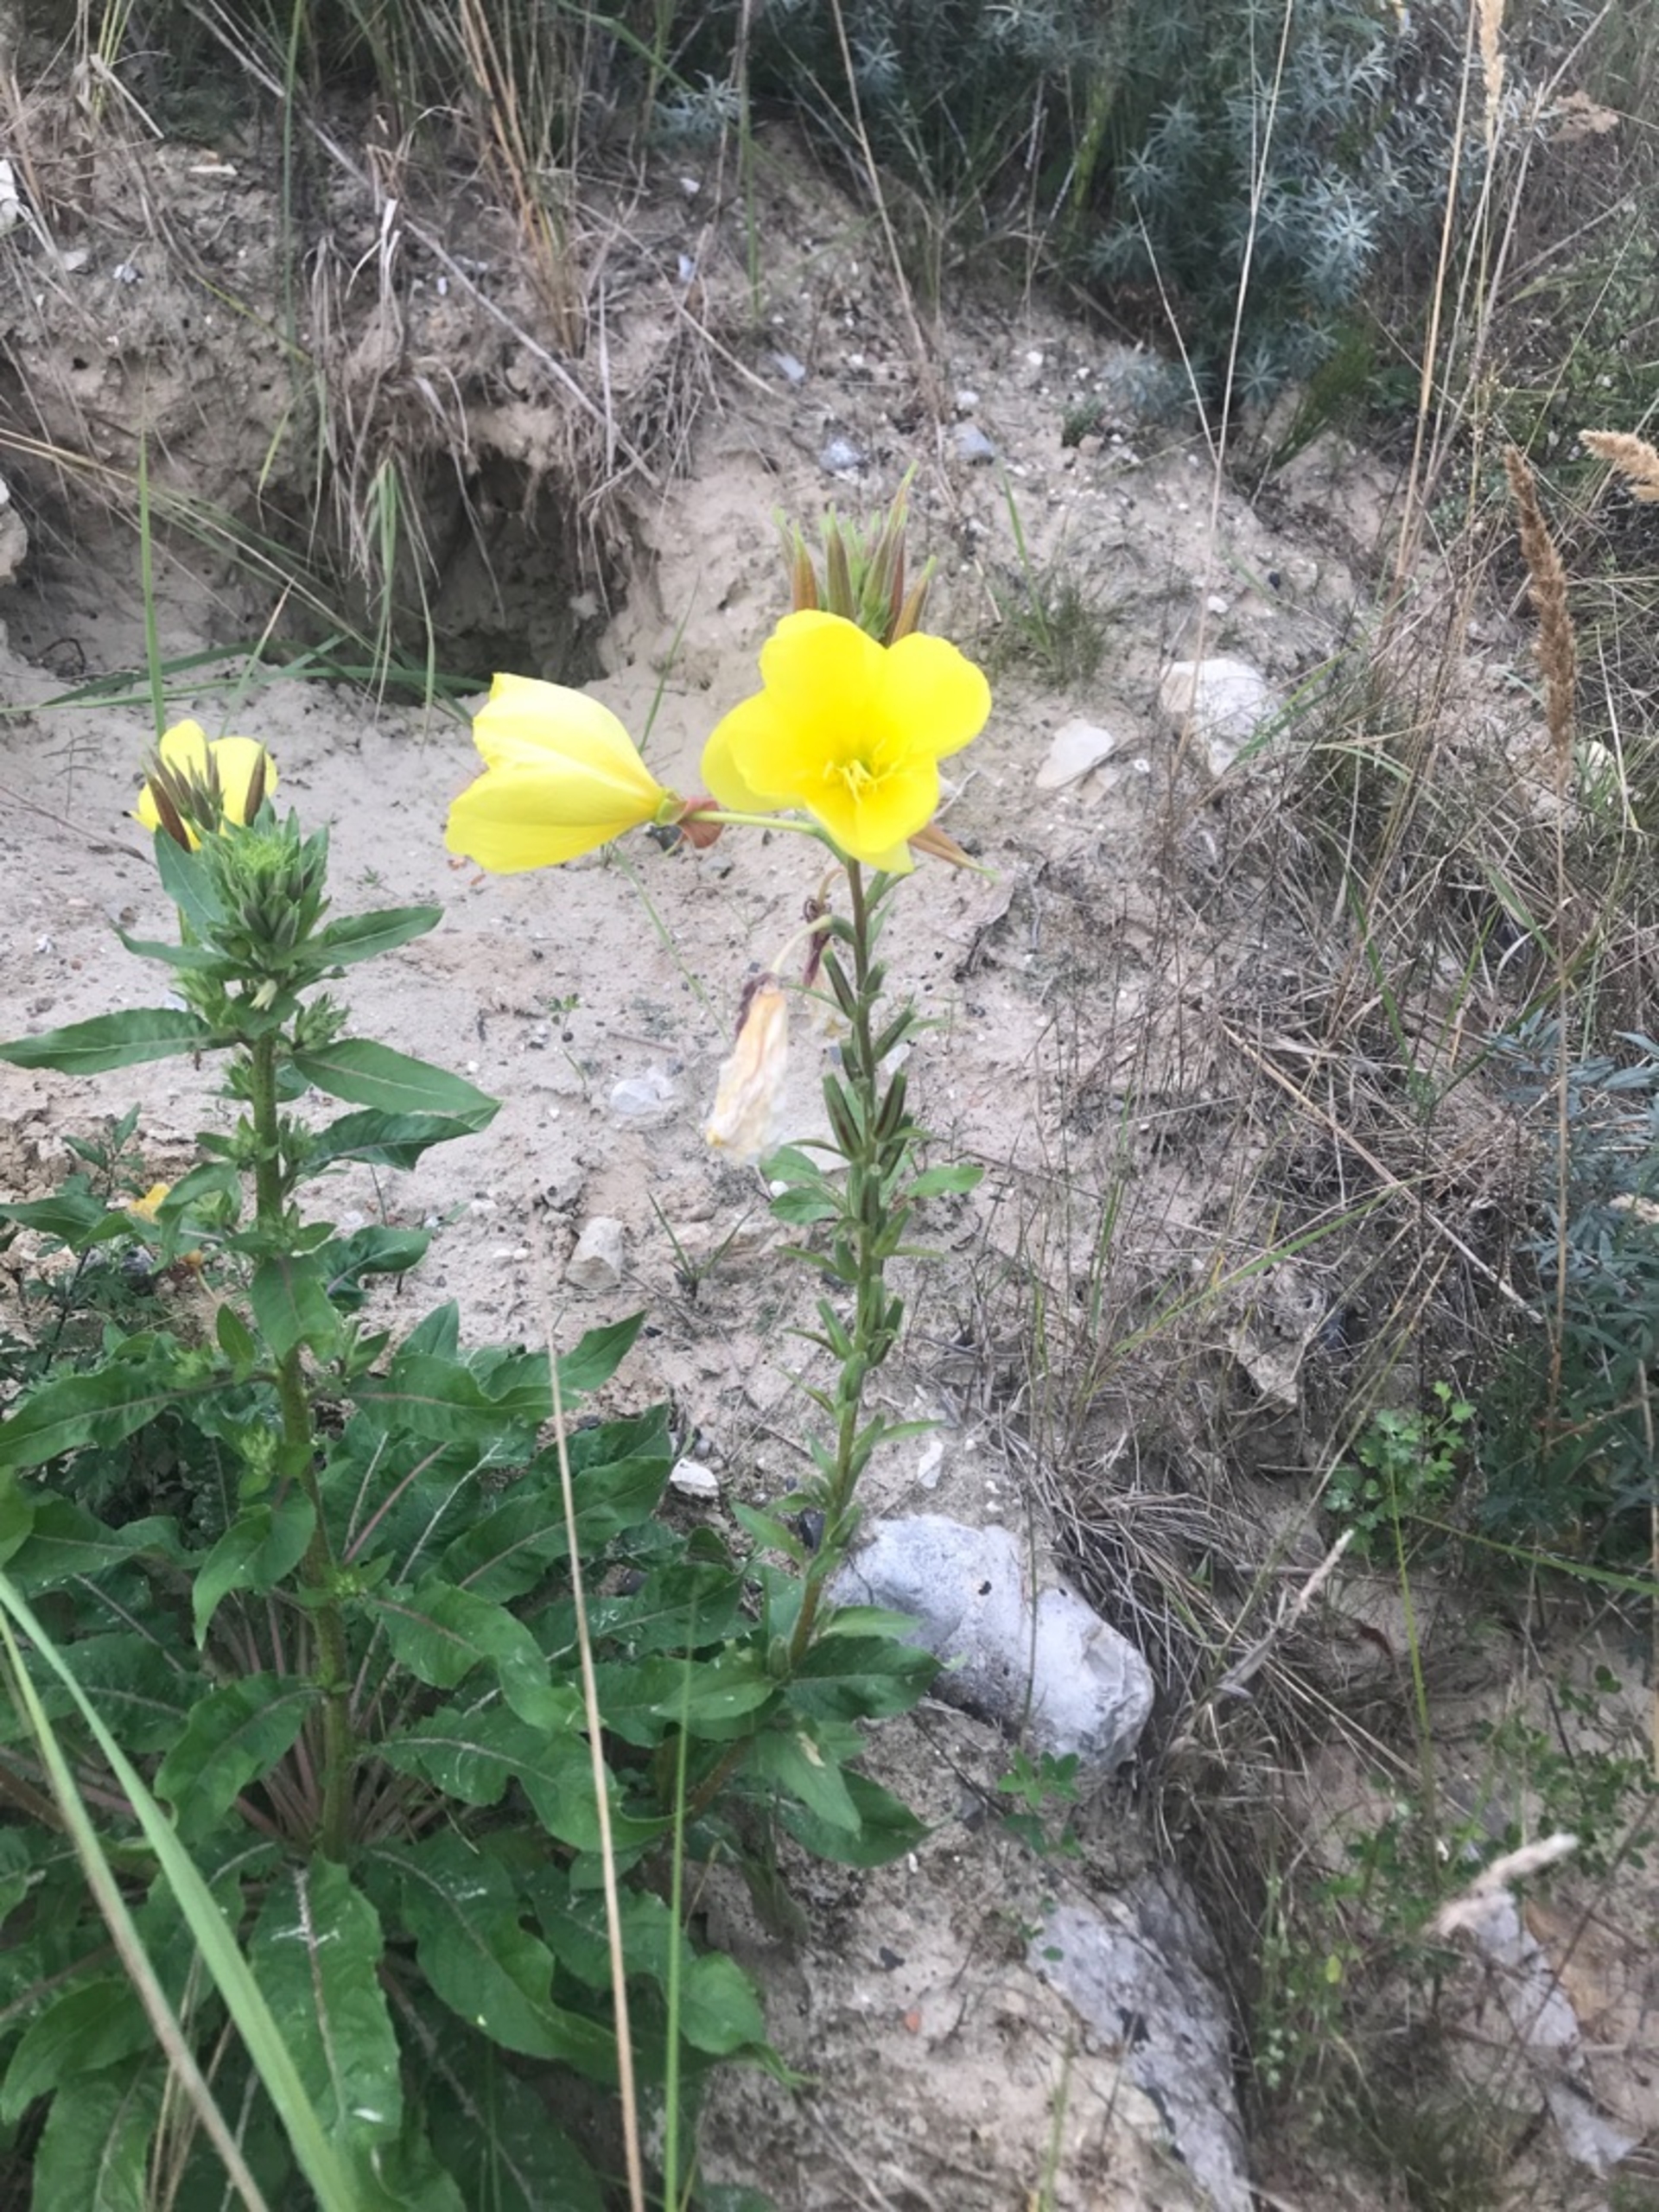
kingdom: Plantae
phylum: Tracheophyta
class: Magnoliopsida
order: Myrtales
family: Onagraceae
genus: Oenothera
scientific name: Oenothera glazioviana
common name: Kæmpe-natlys
